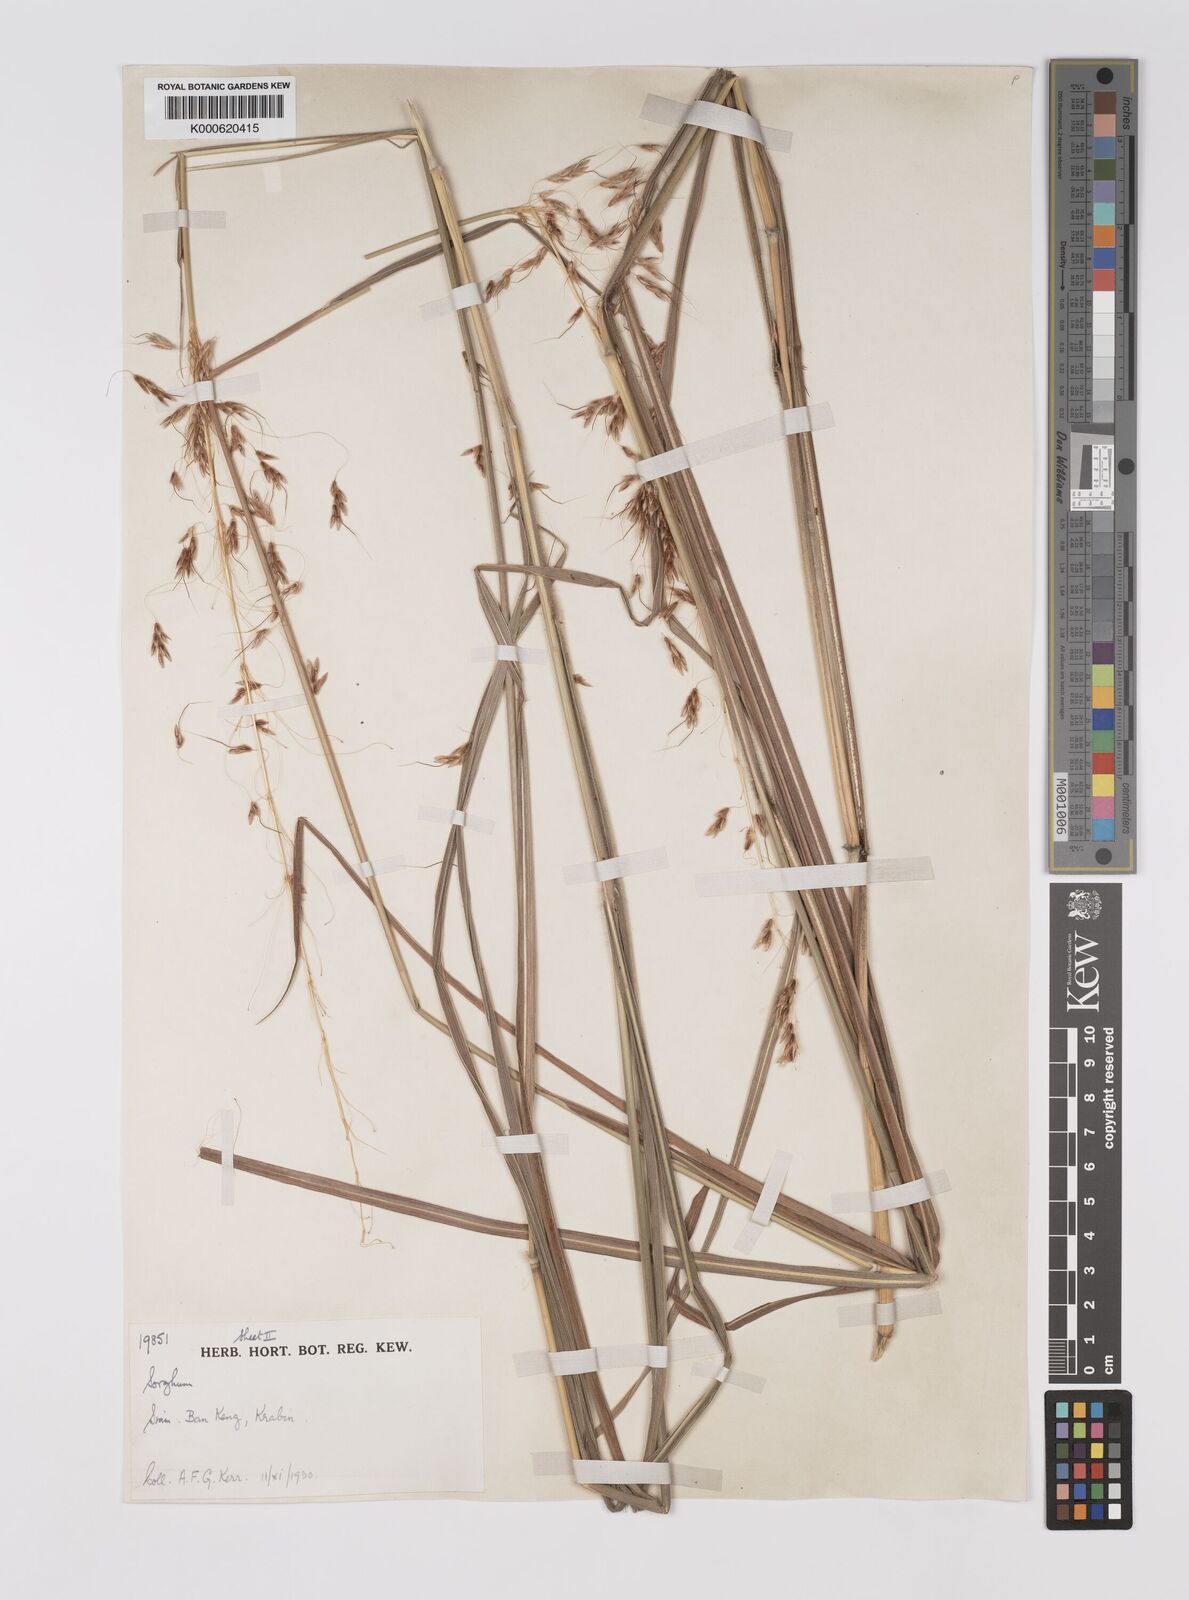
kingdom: Plantae
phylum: Tracheophyta
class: Liliopsida
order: Poales
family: Poaceae
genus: Sorghum
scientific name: Sorghum nitidum
